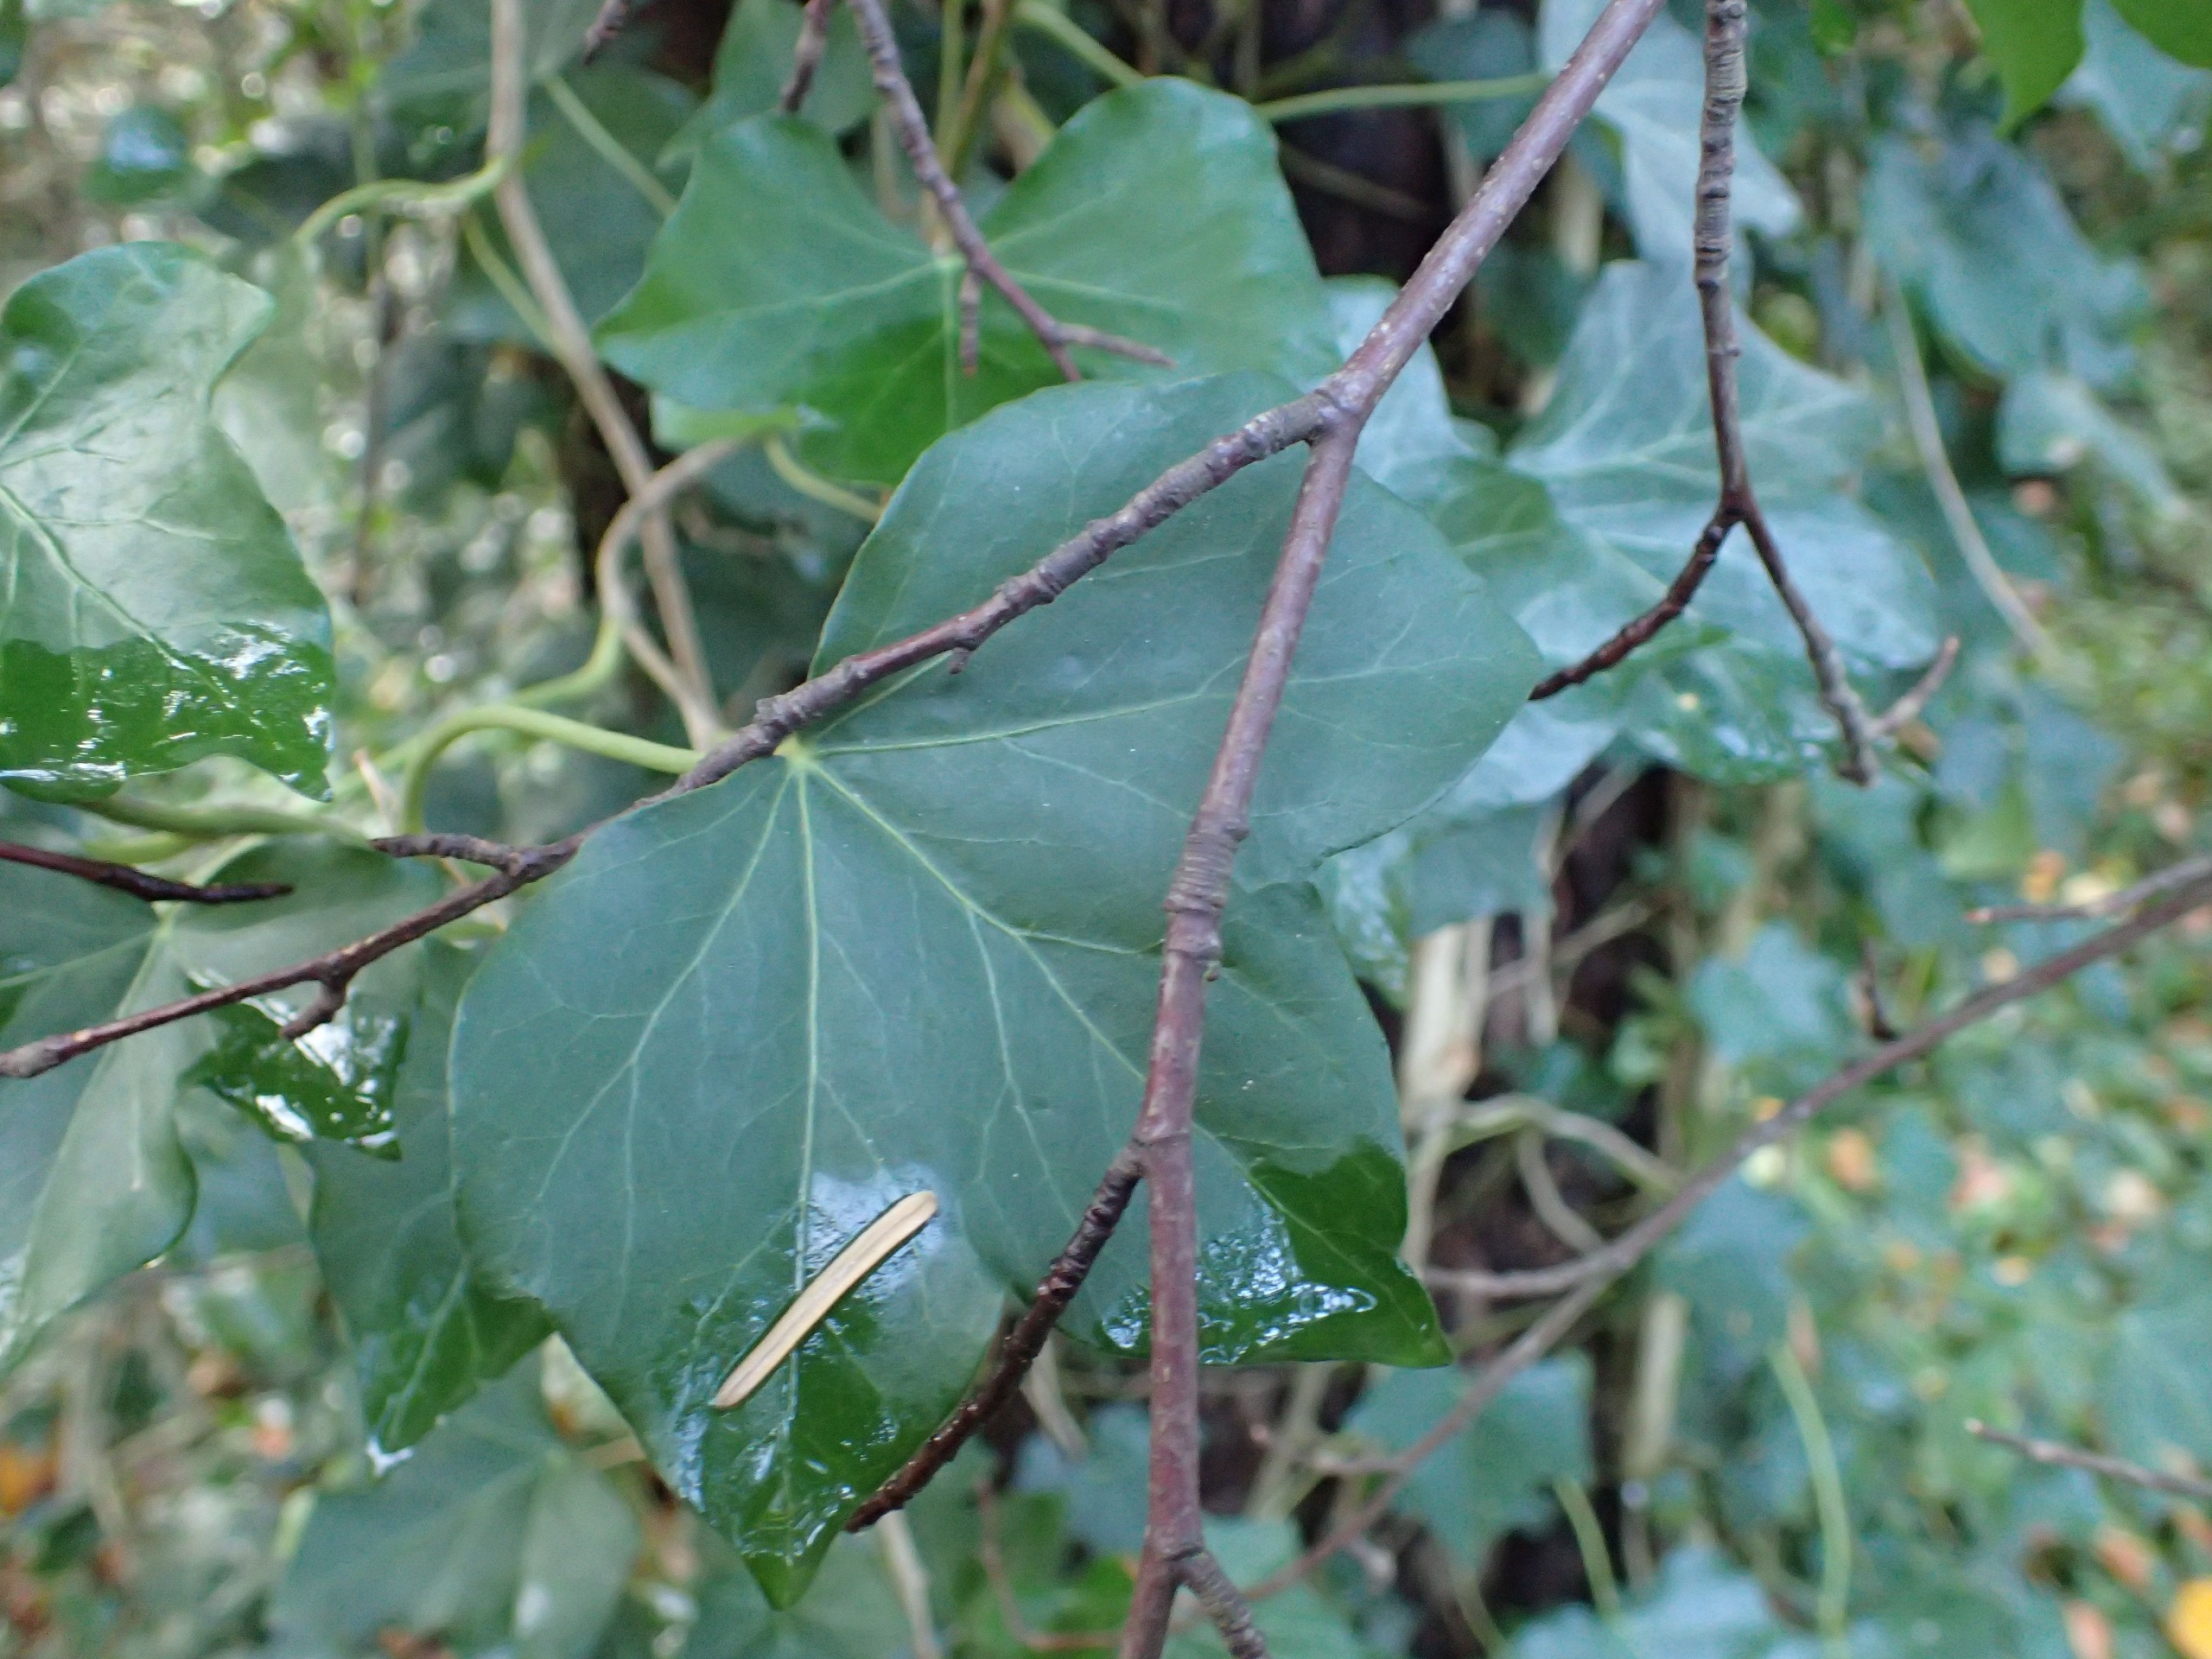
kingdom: Plantae
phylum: Tracheophyta
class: Magnoliopsida
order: Apiales
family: Araliaceae
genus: Hedera
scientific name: Hedera hibernica
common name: Irsk vedbend
